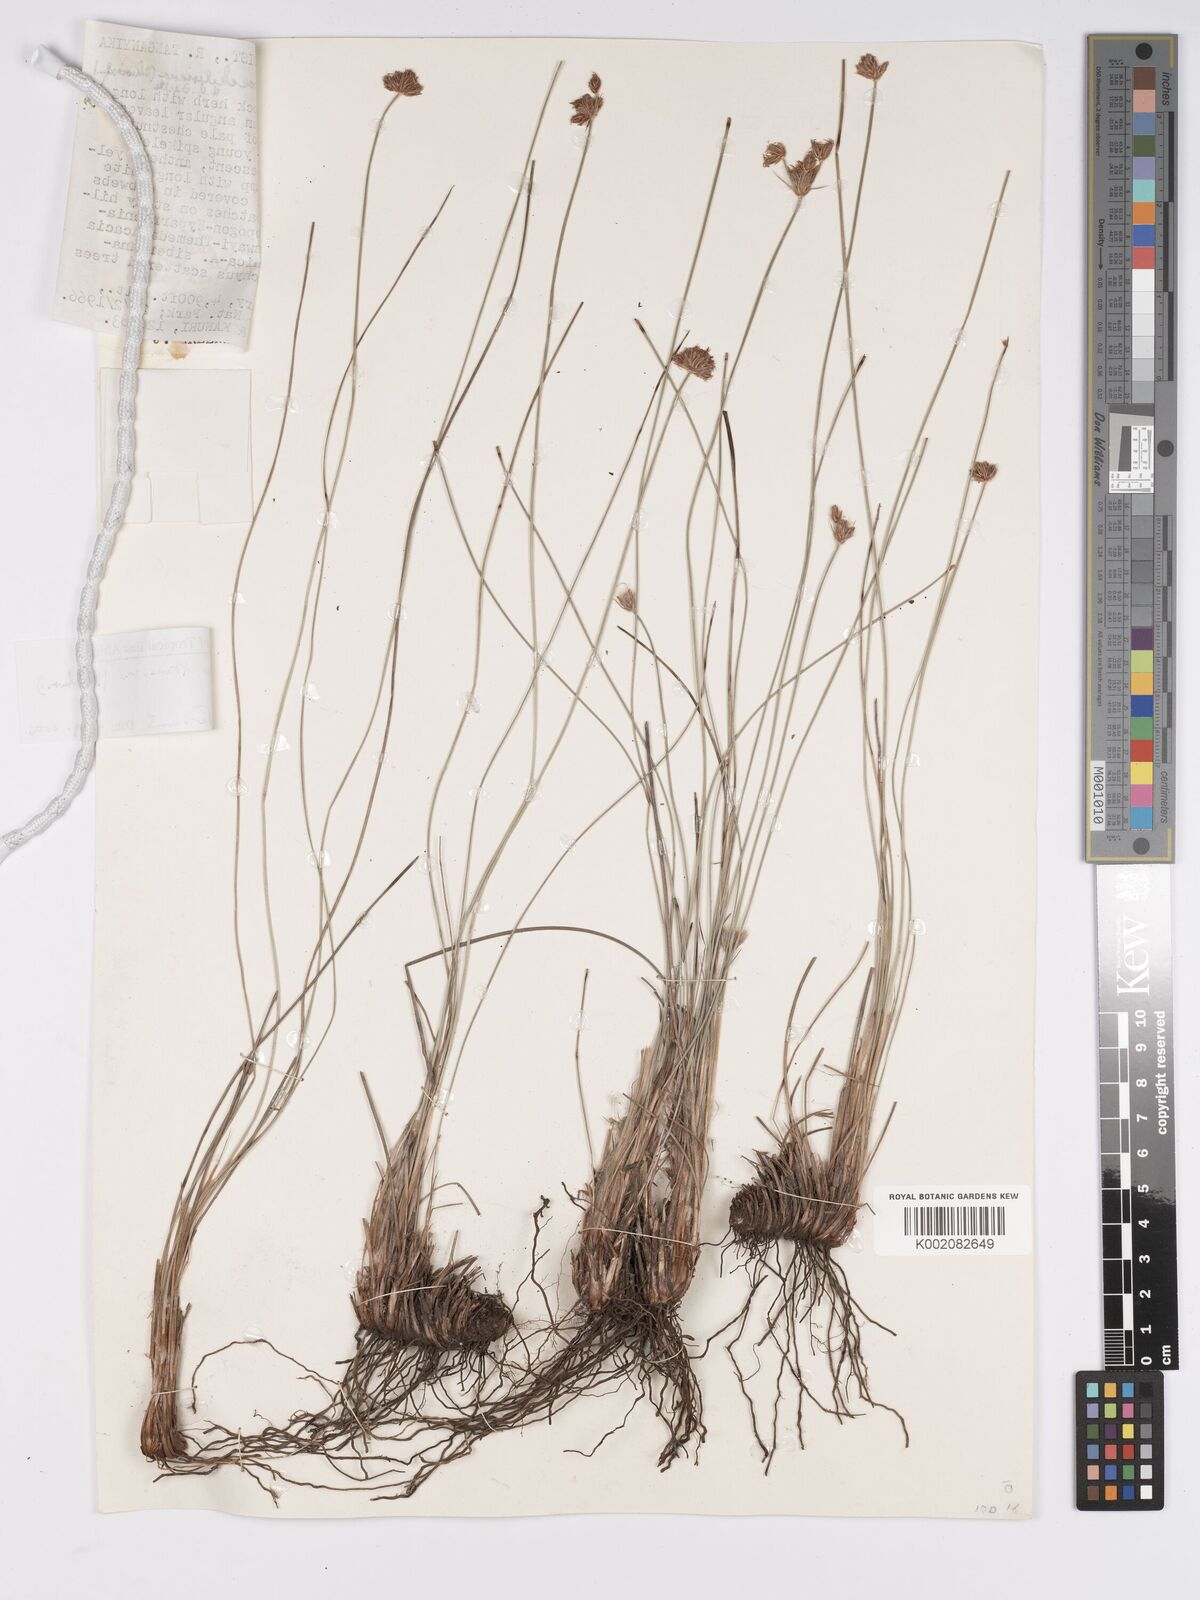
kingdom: Plantae
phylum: Tracheophyta
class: Liliopsida
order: Poales
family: Cyperaceae
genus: Bulbostylis
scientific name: Bulbostylis boeckeleriana
